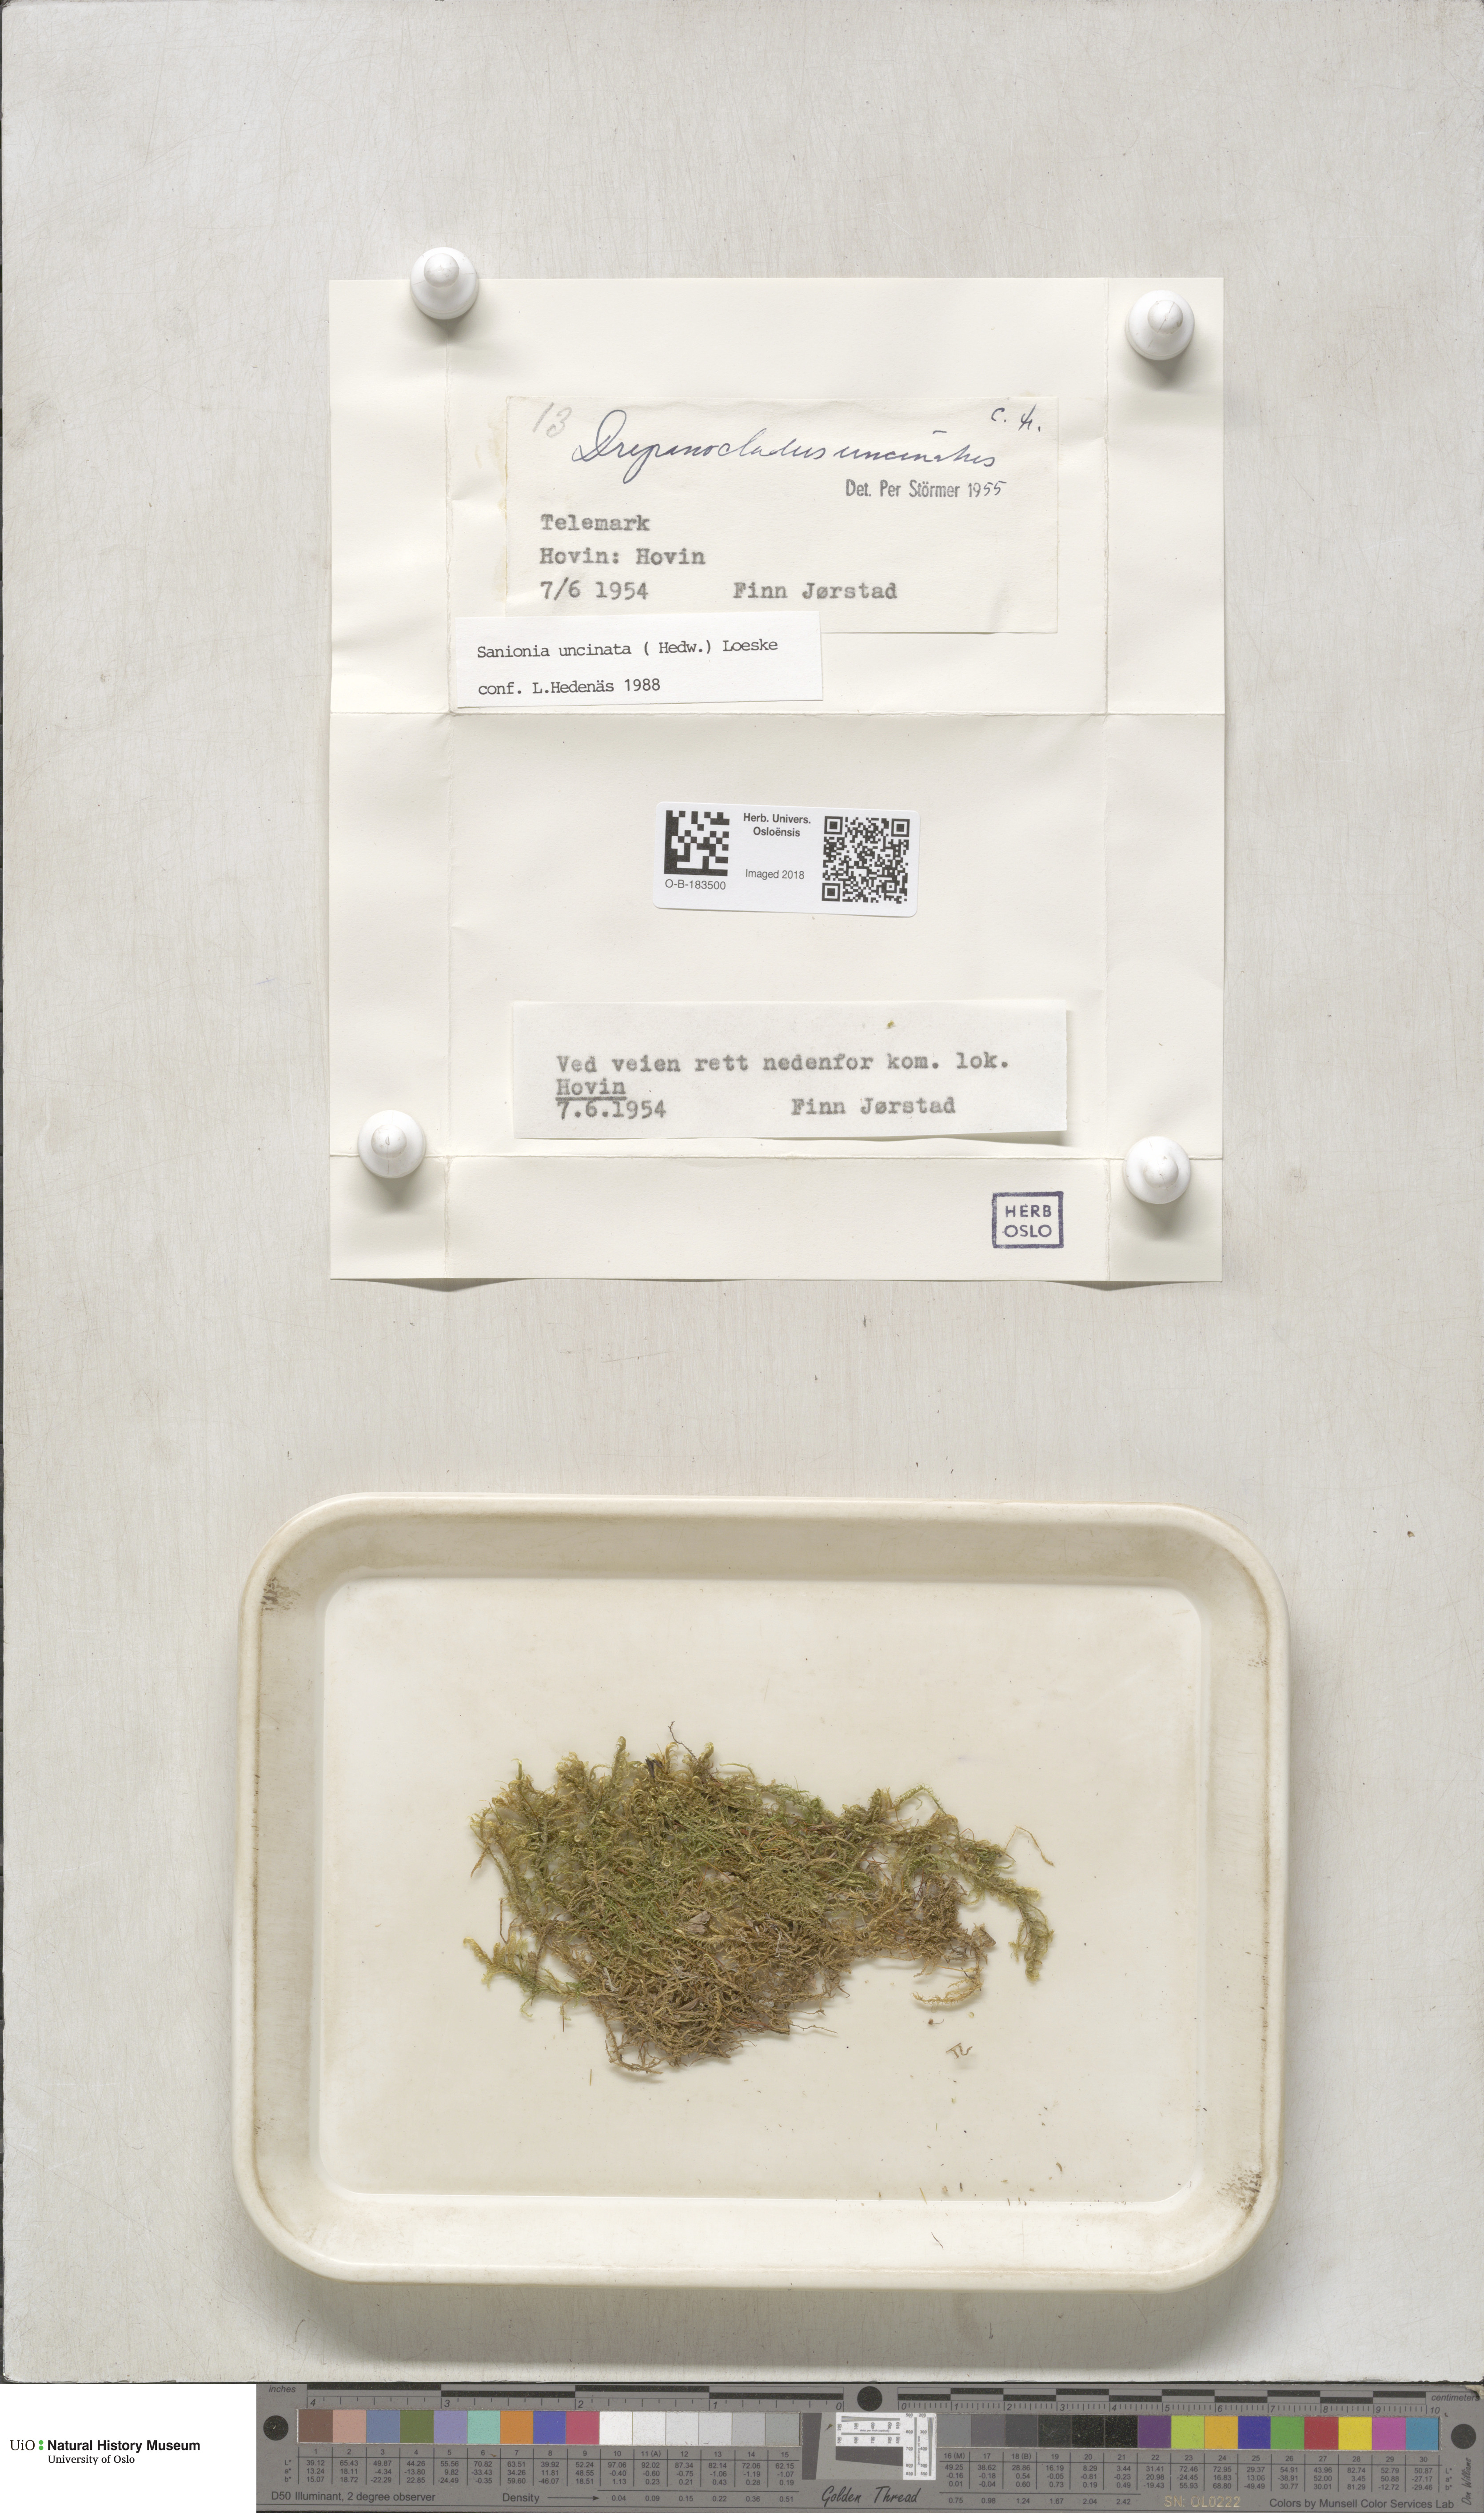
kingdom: Plantae
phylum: Bryophyta
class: Bryopsida
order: Hypnales
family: Scorpidiaceae
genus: Sanionia
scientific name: Sanionia uncinata
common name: Sickle moss
